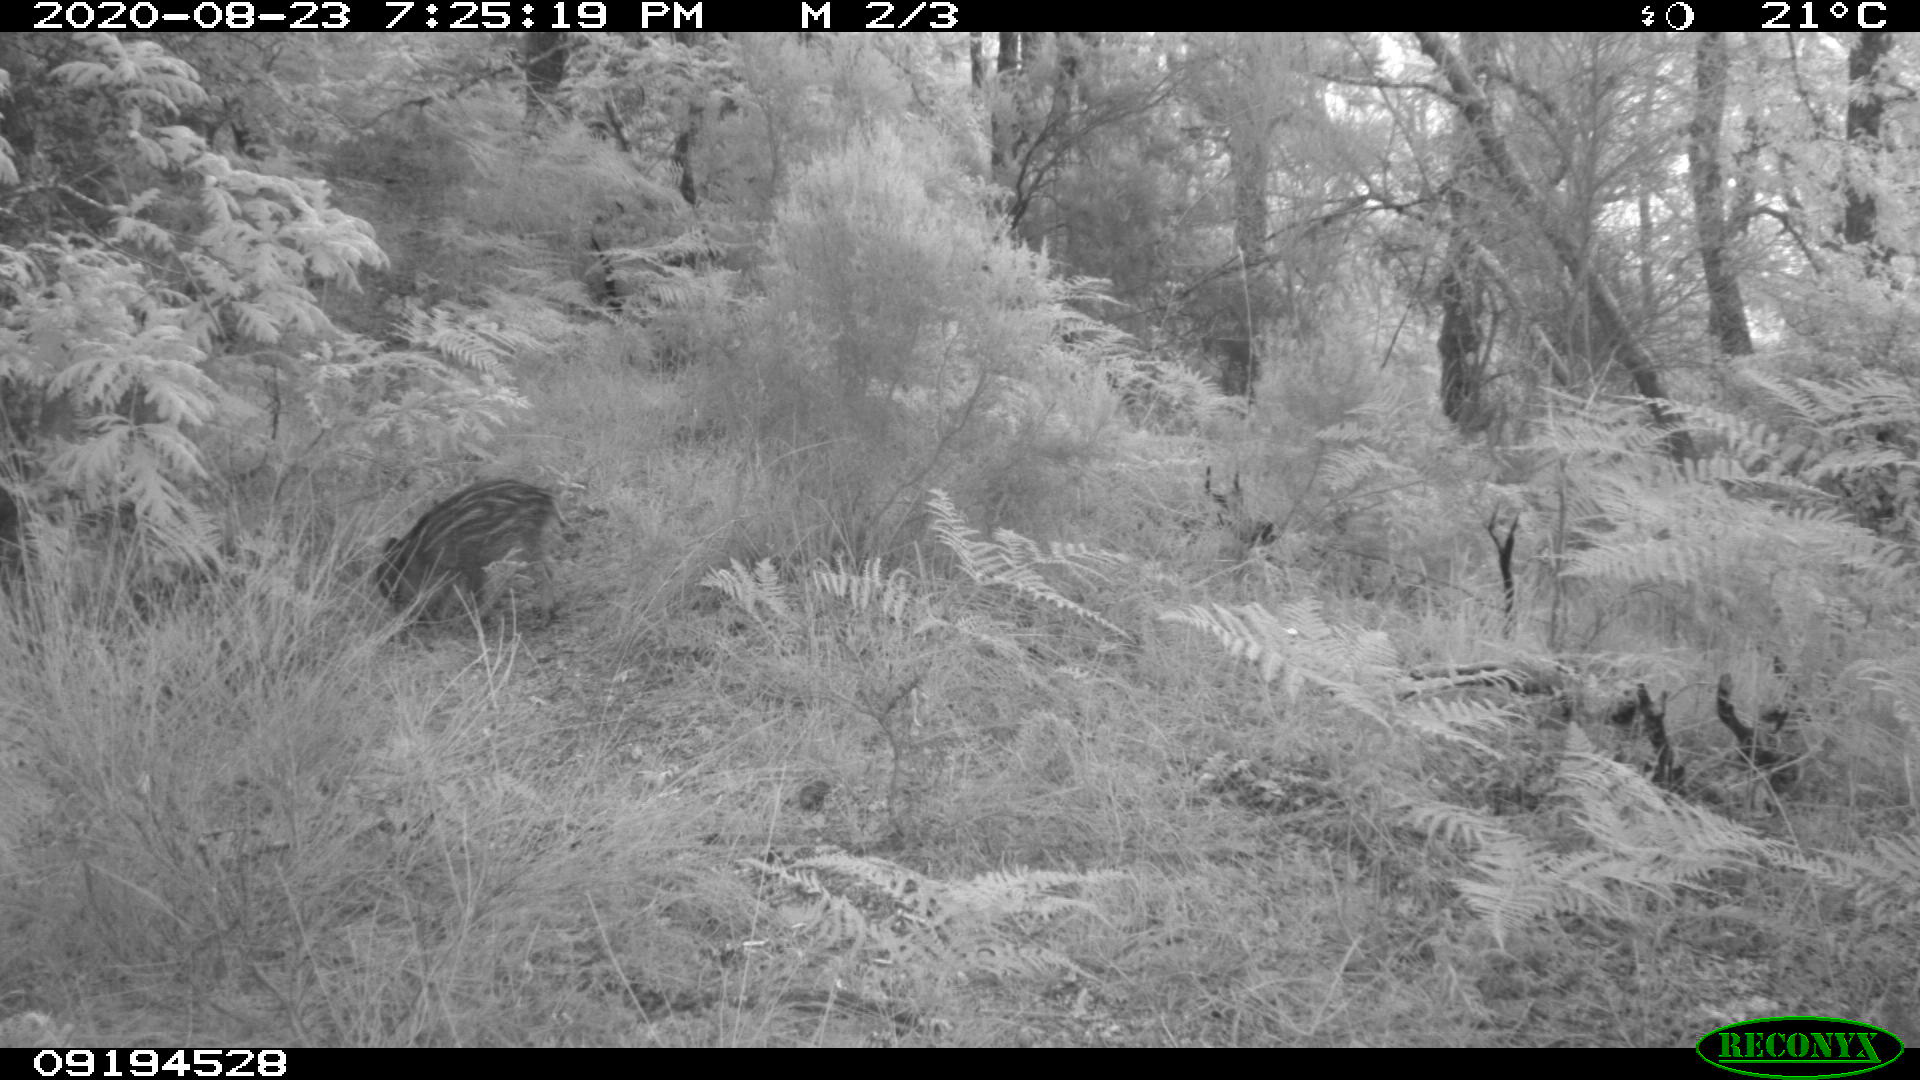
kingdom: Animalia
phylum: Chordata
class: Mammalia
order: Artiodactyla
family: Suidae
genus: Sus
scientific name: Sus scrofa
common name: Wild boar
